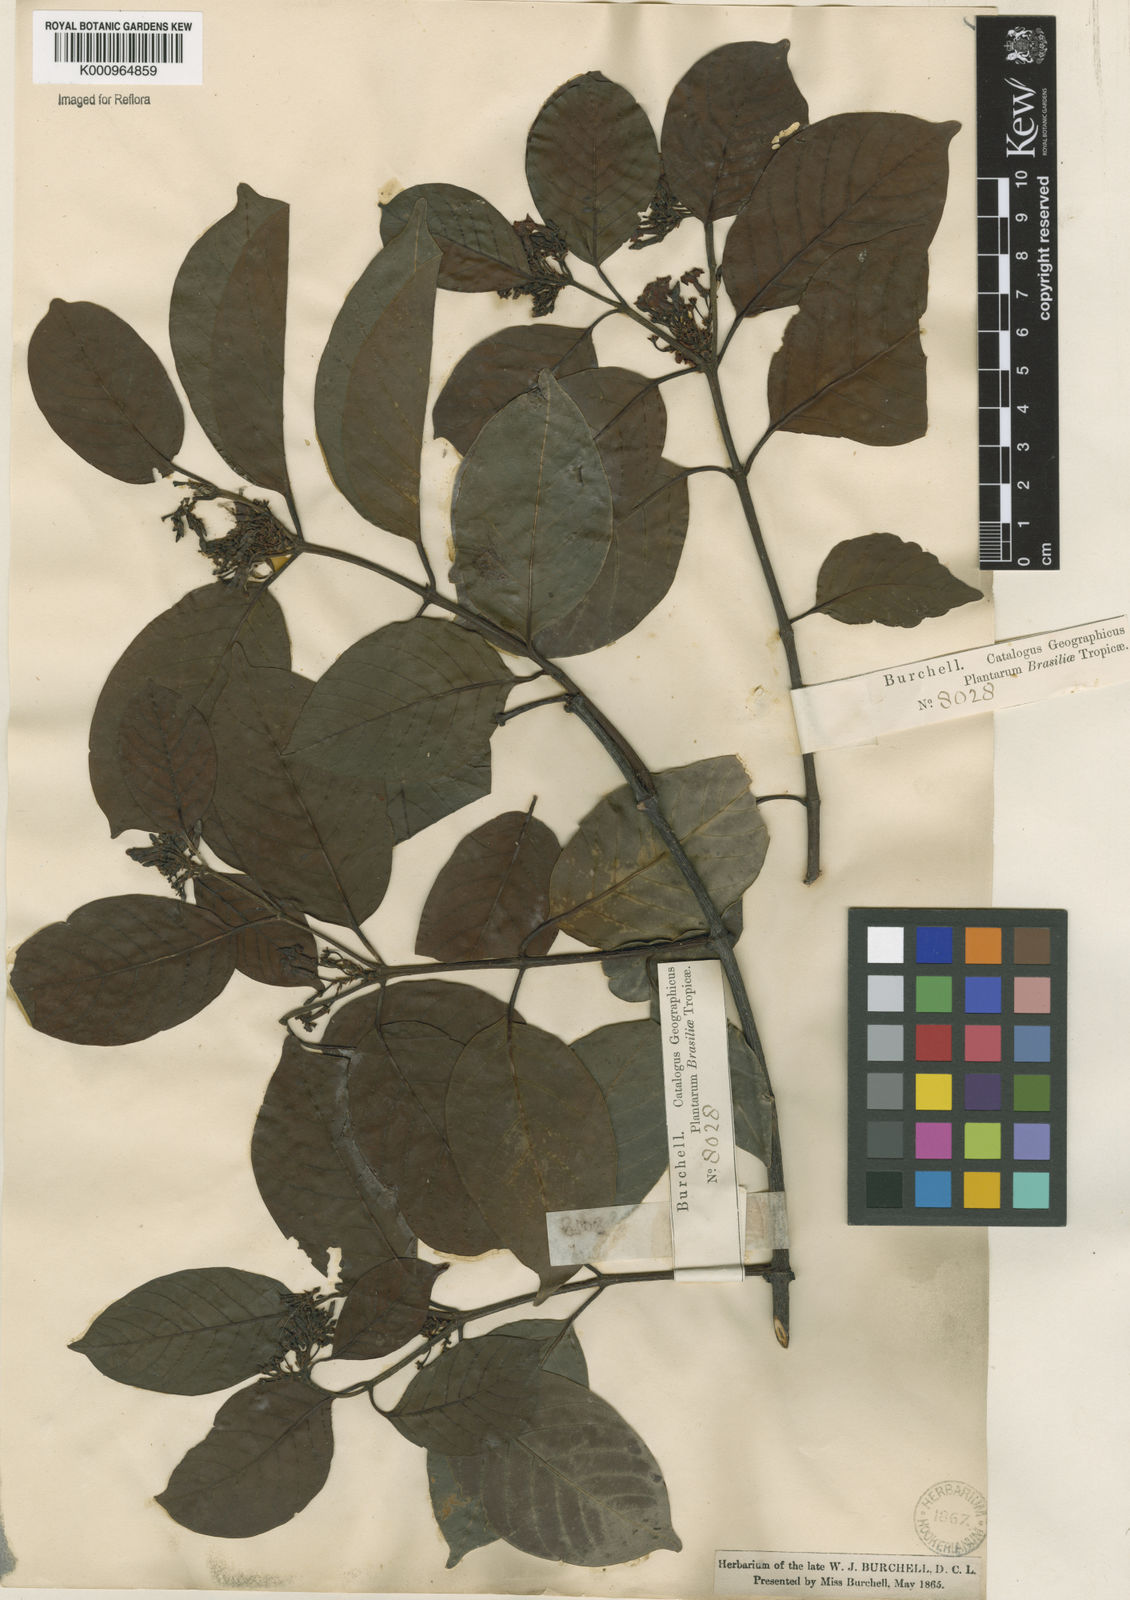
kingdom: Plantae
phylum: Tracheophyta
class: Magnoliopsida
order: Gentianales
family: Apocynaceae
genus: Secondatia
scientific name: Secondatia densiflora
